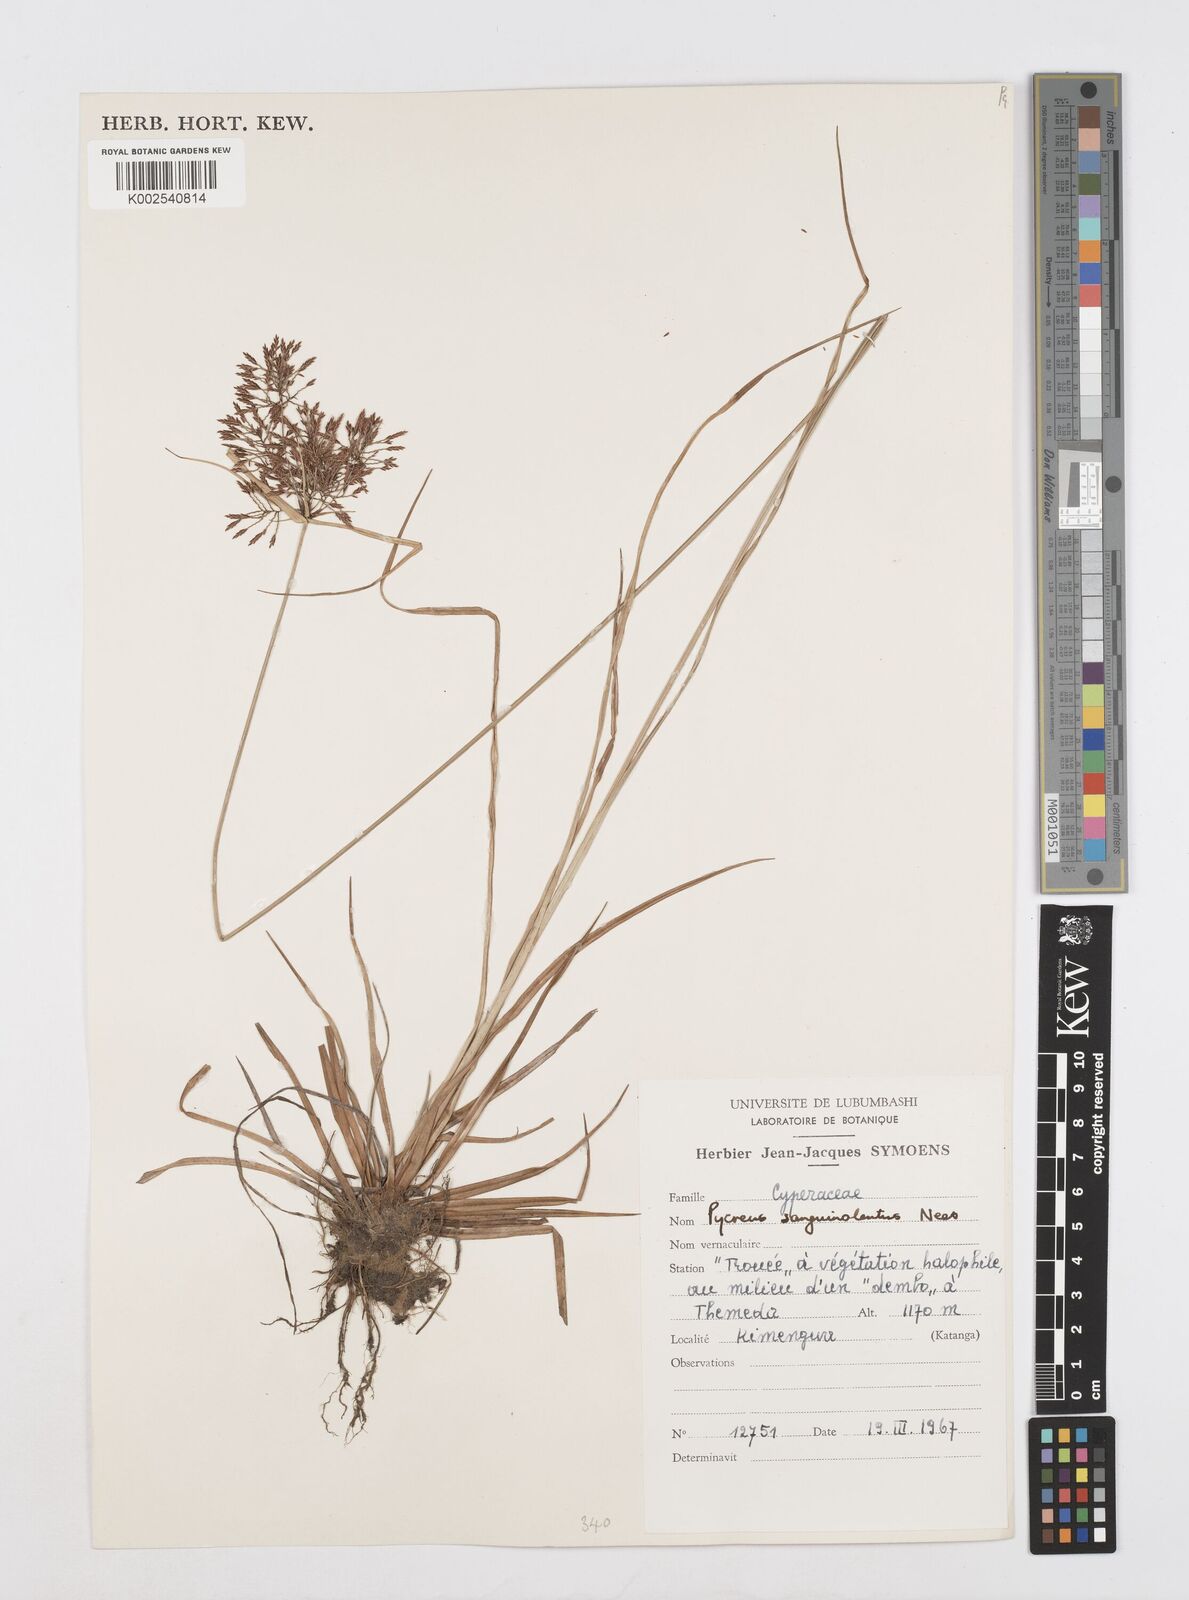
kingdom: Plantae
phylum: Tracheophyta
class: Liliopsida
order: Poales
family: Cyperaceae
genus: Cyperus
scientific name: Cyperus polystachyos
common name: Bunchy flat sedge
